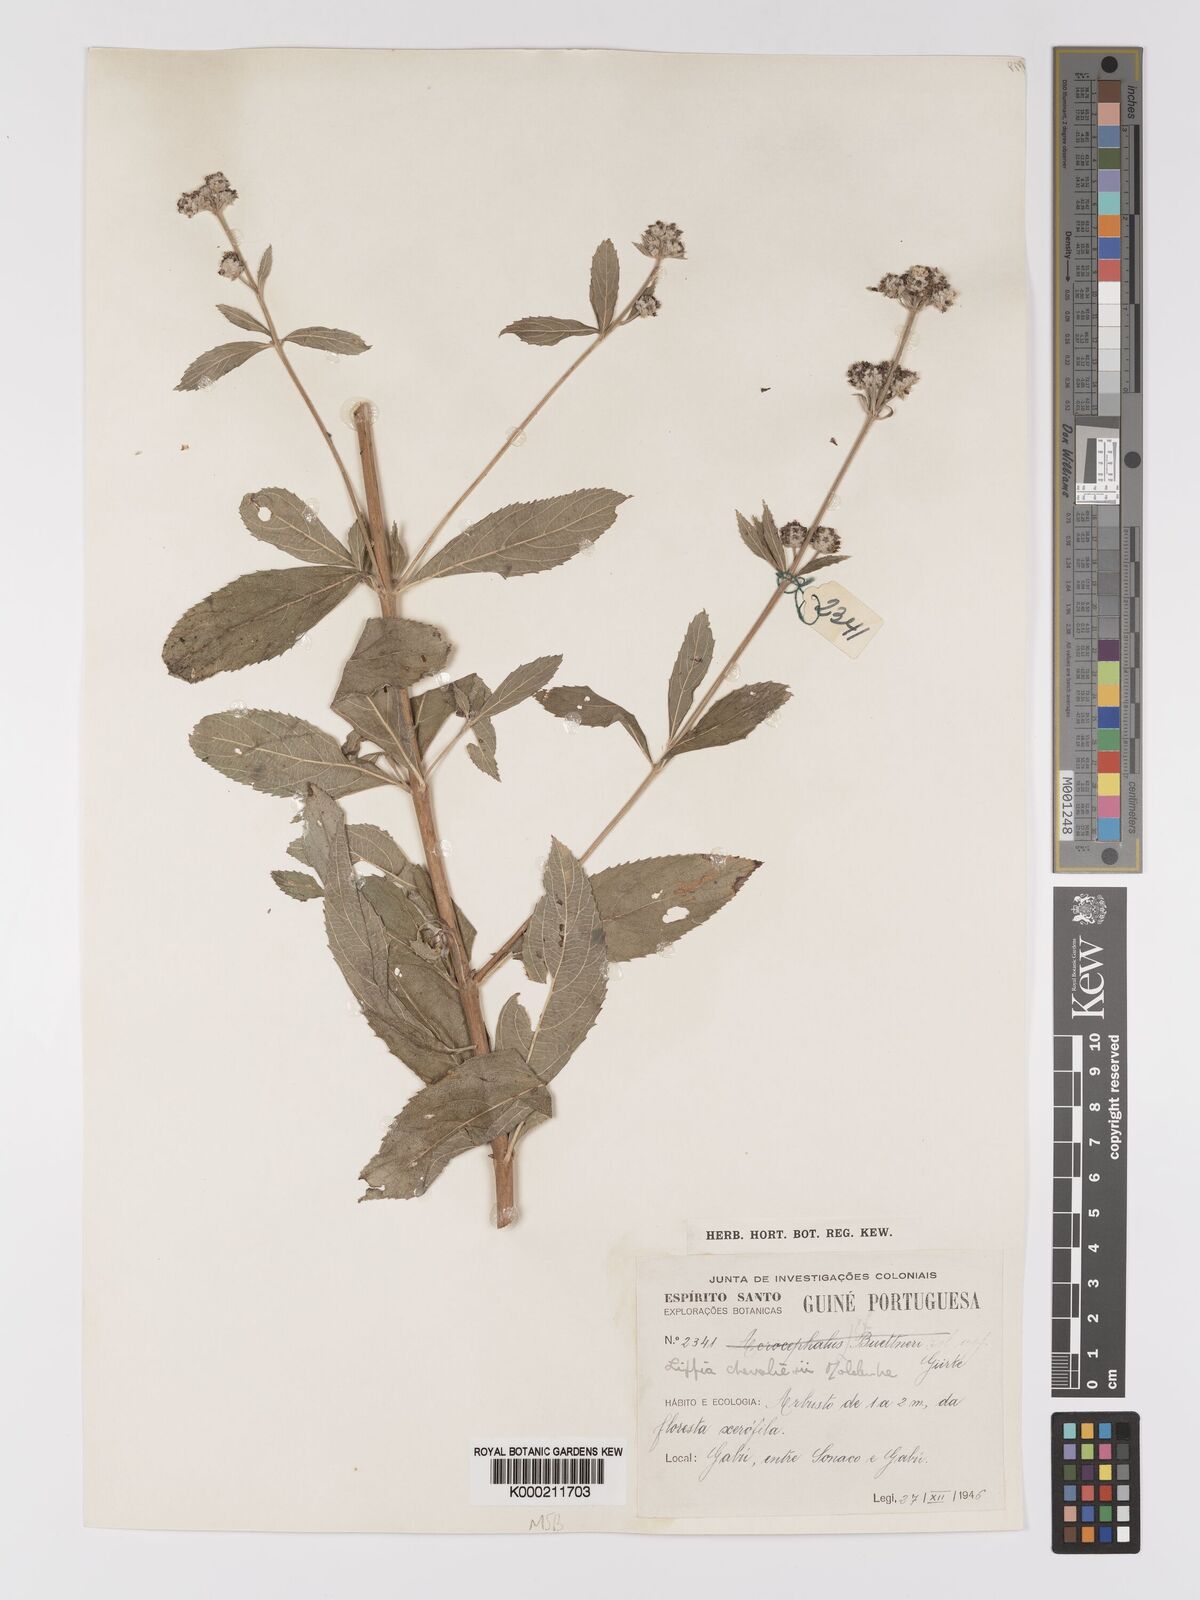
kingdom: Plantae
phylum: Tracheophyta
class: Magnoliopsida
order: Lamiales
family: Verbenaceae
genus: Lippia
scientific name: Lippia chevalieri
